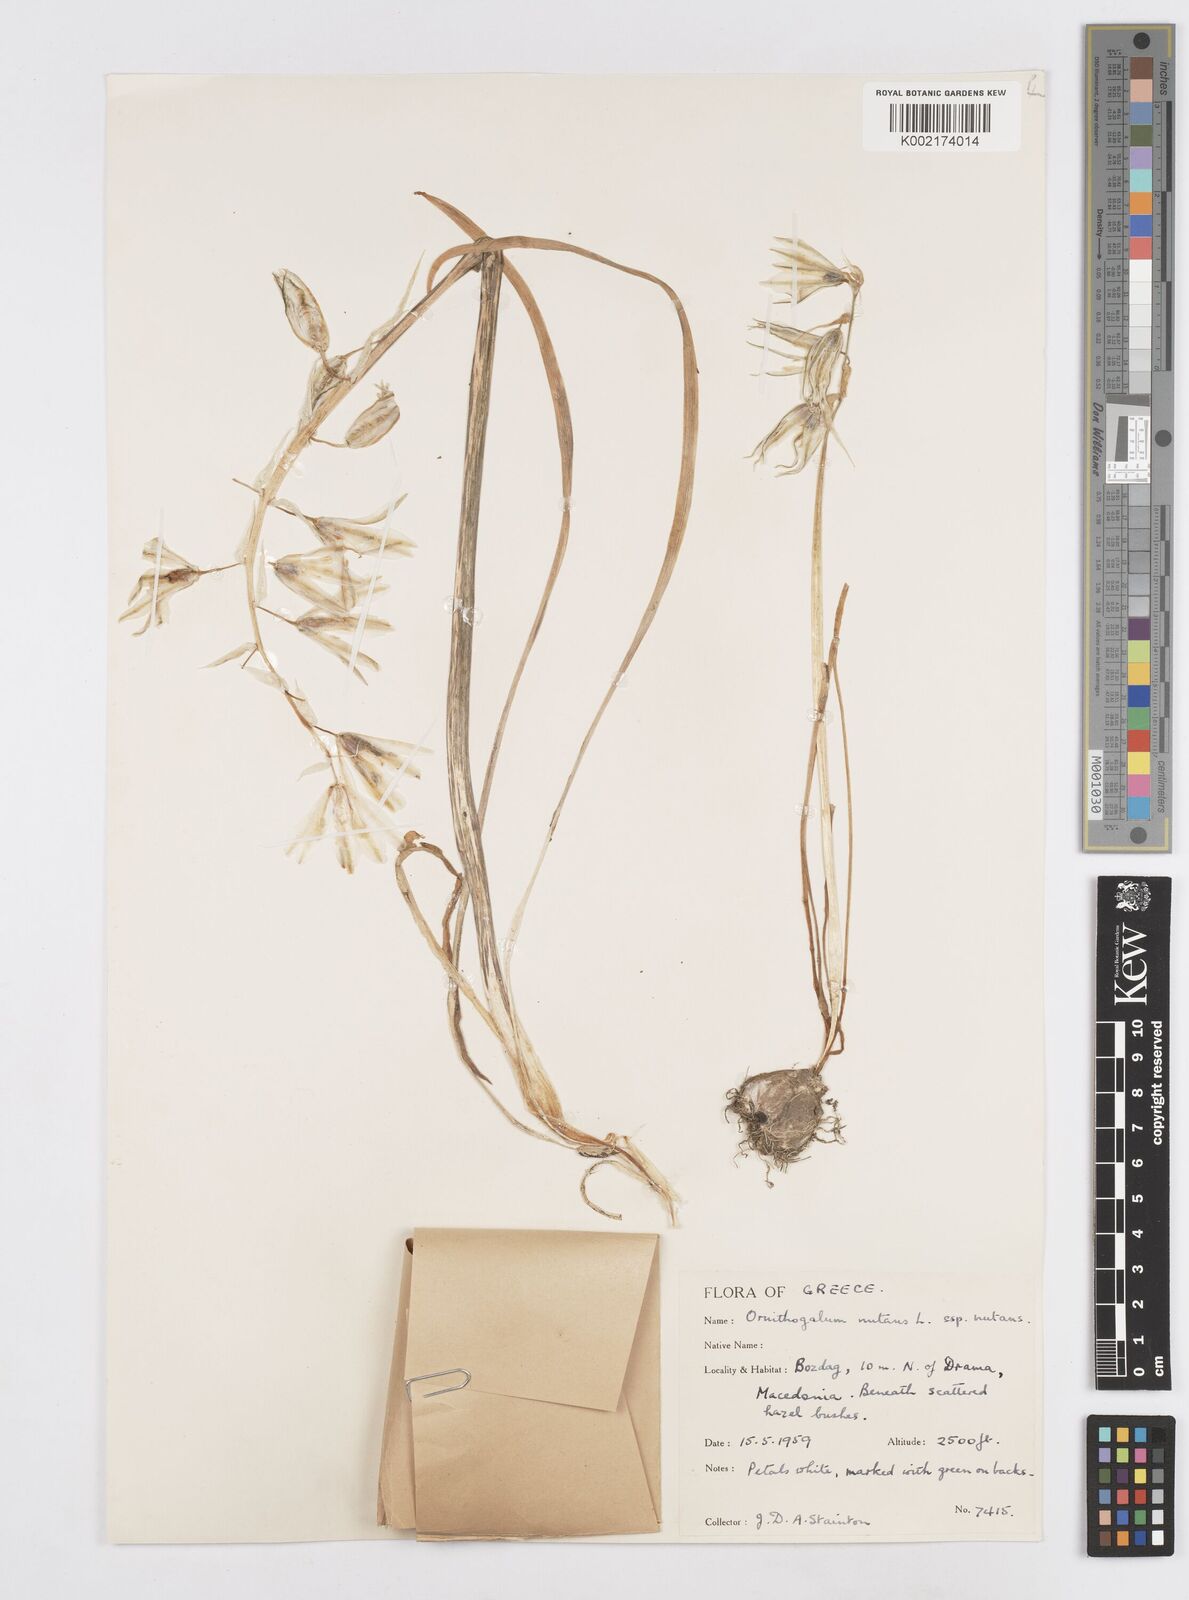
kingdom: Plantae
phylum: Tracheophyta
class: Liliopsida
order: Asparagales
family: Asparagaceae
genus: Ornithogalum
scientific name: Ornithogalum nutans
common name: Drooping star-of-bethlehem
